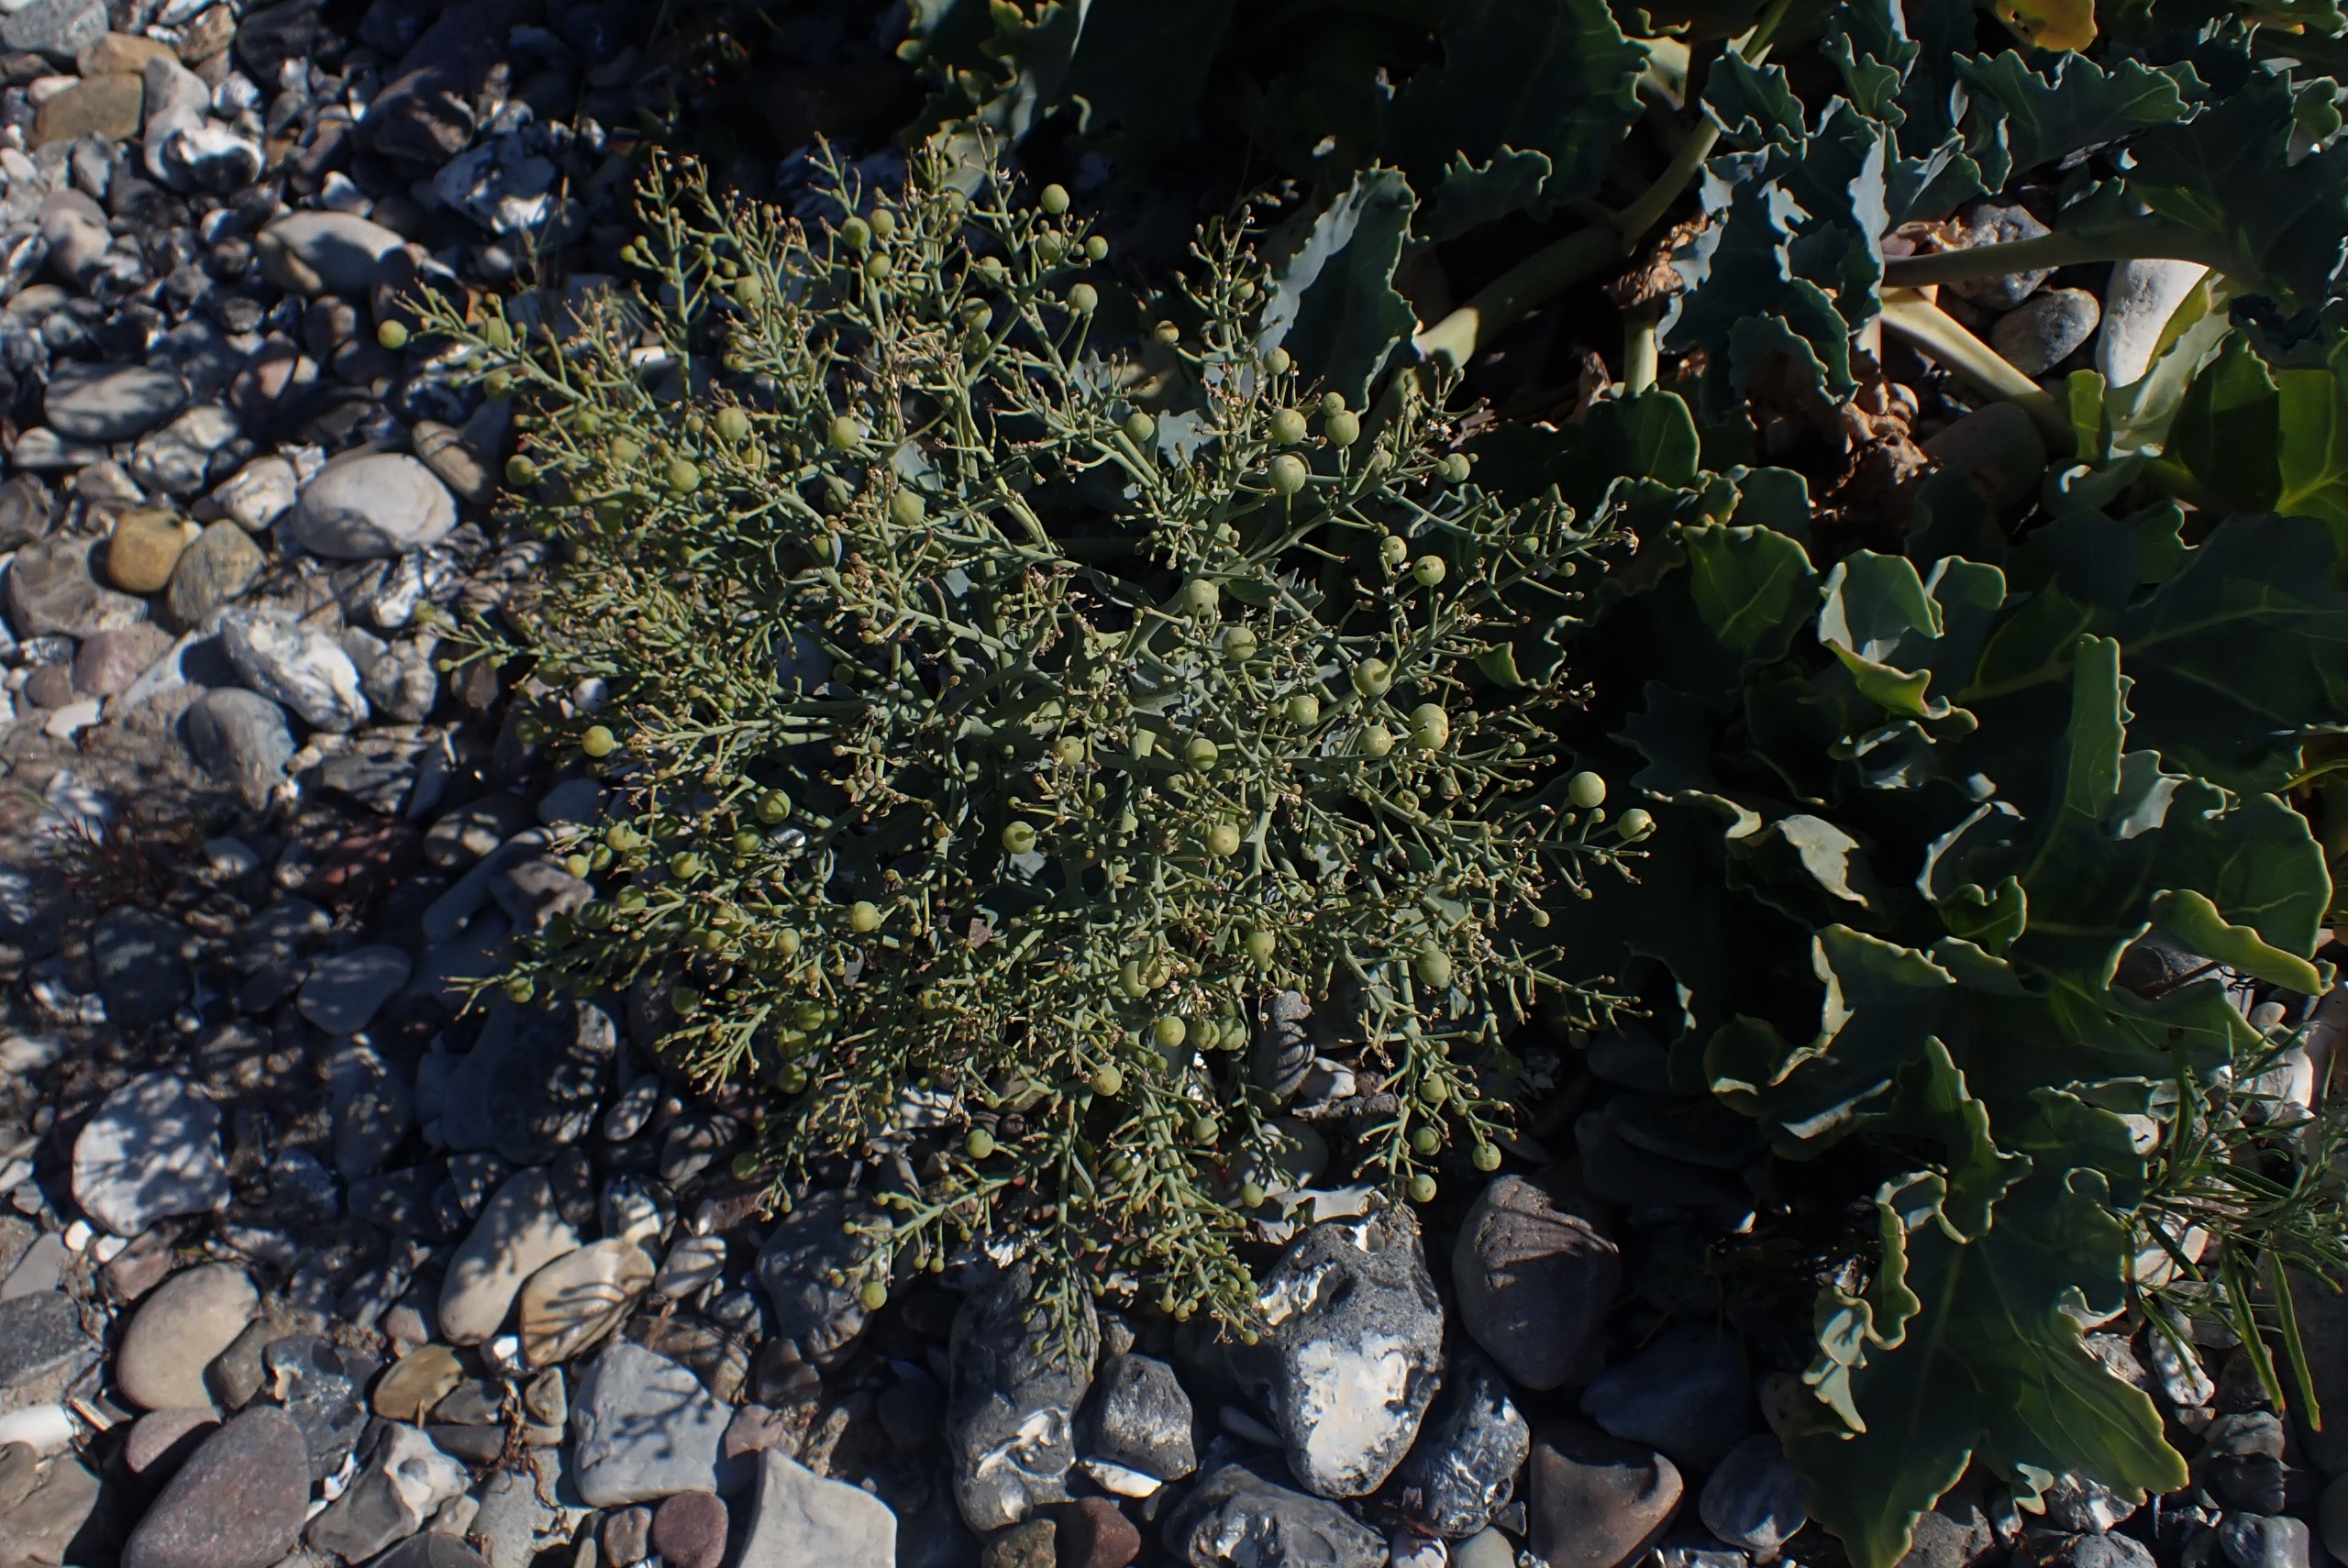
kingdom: Plantae
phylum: Tracheophyta
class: Magnoliopsida
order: Brassicales
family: Brassicaceae
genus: Crambe
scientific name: Crambe maritima
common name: Strandkål
